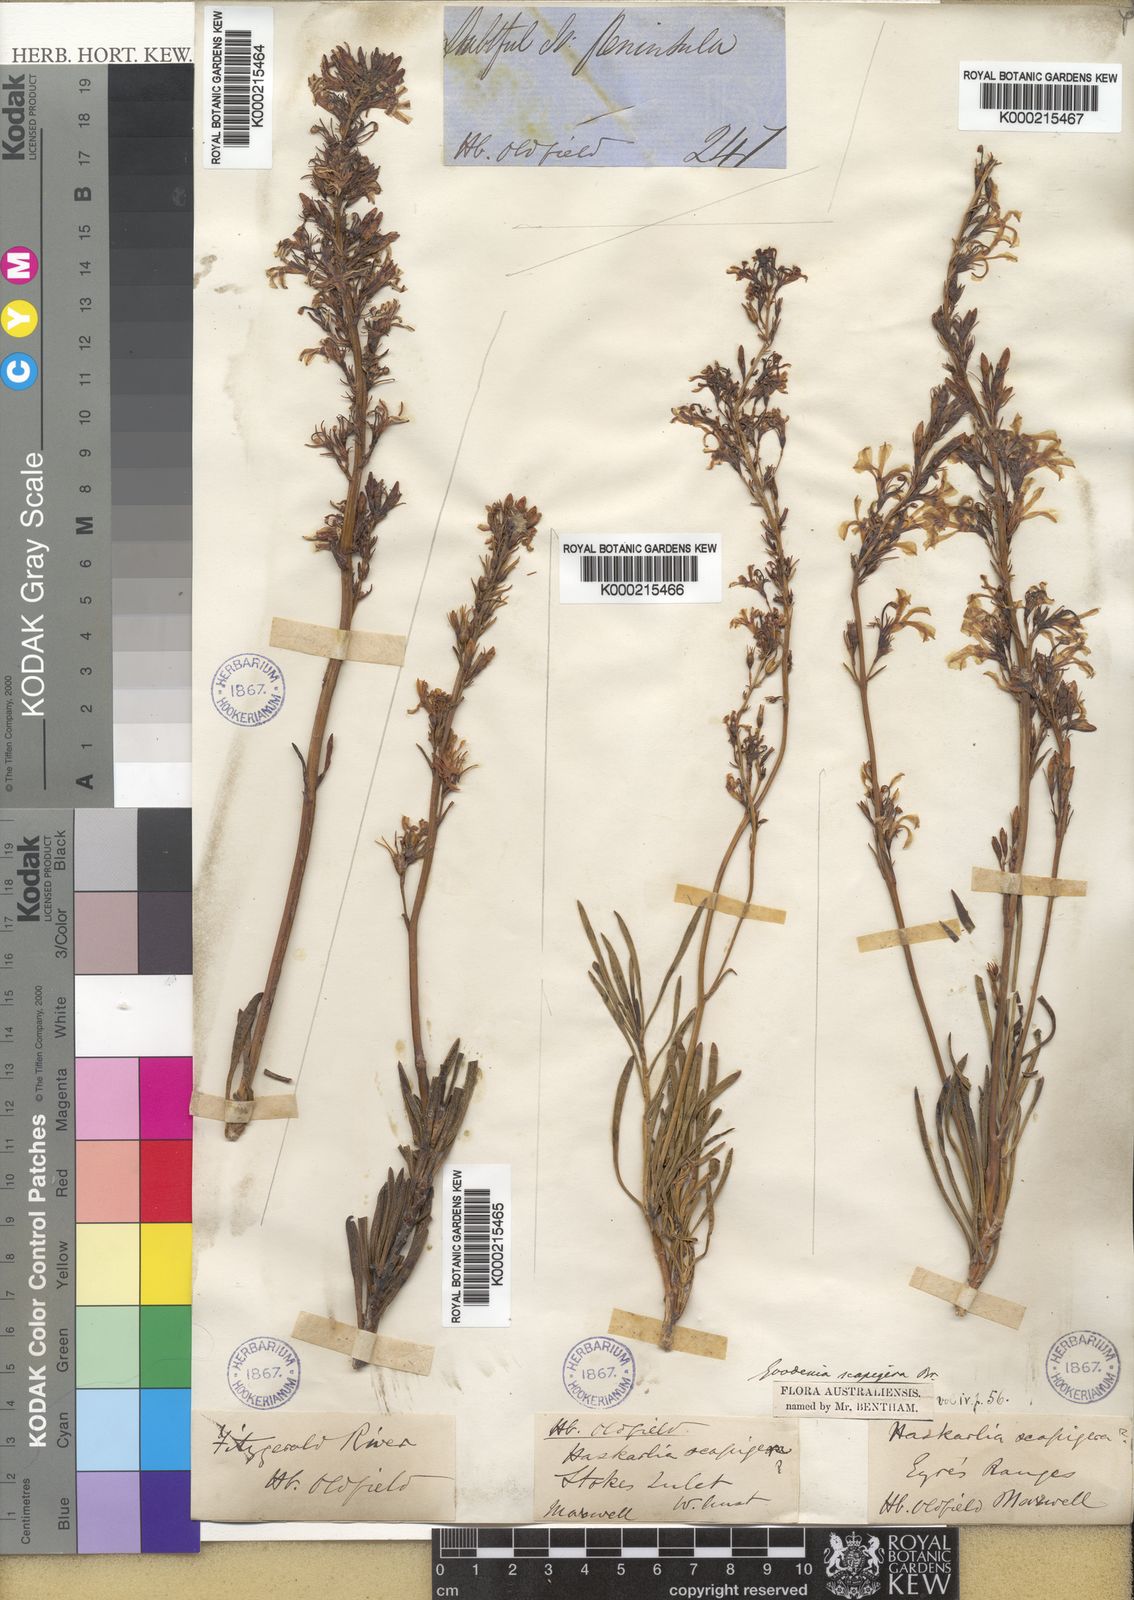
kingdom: Plantae
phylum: Tracheophyta
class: Magnoliopsida
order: Asterales
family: Goodeniaceae
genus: Goodenia
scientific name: Goodenia scapigera
